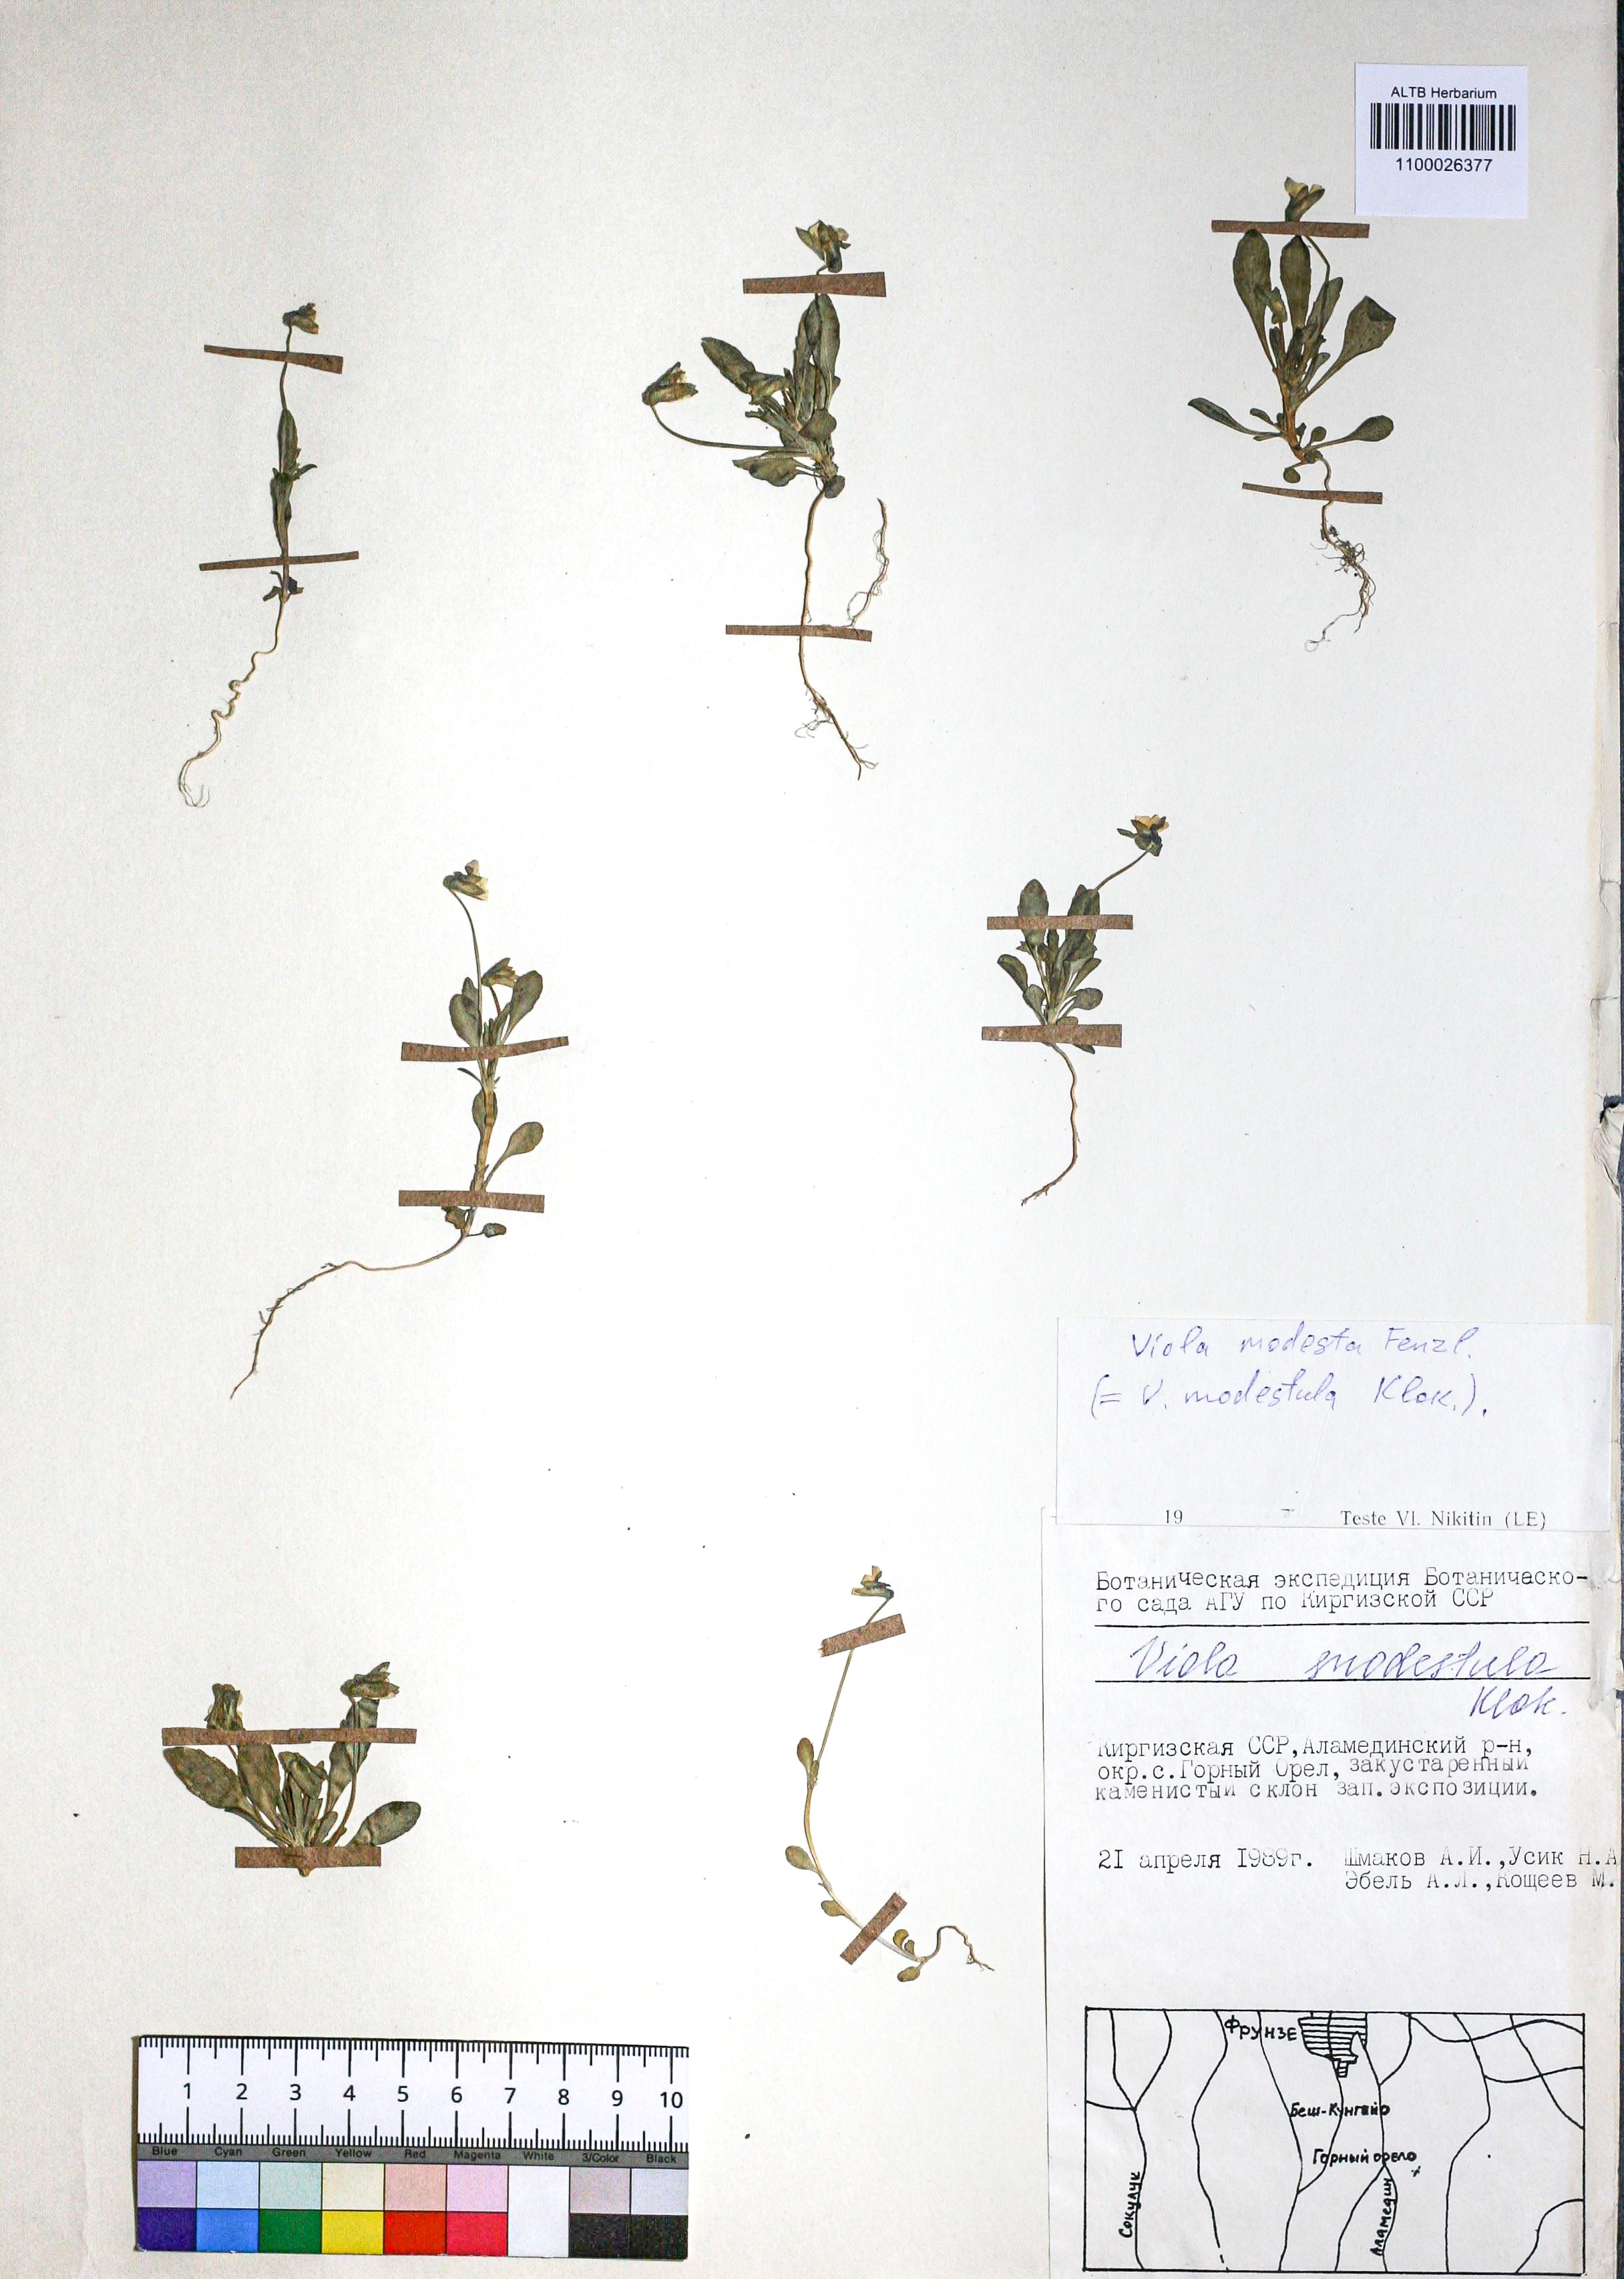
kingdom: Plantae
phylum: Tracheophyta
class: Magnoliopsida
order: Malpighiales
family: Violaceae
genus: Viola
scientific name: Viola modesta
